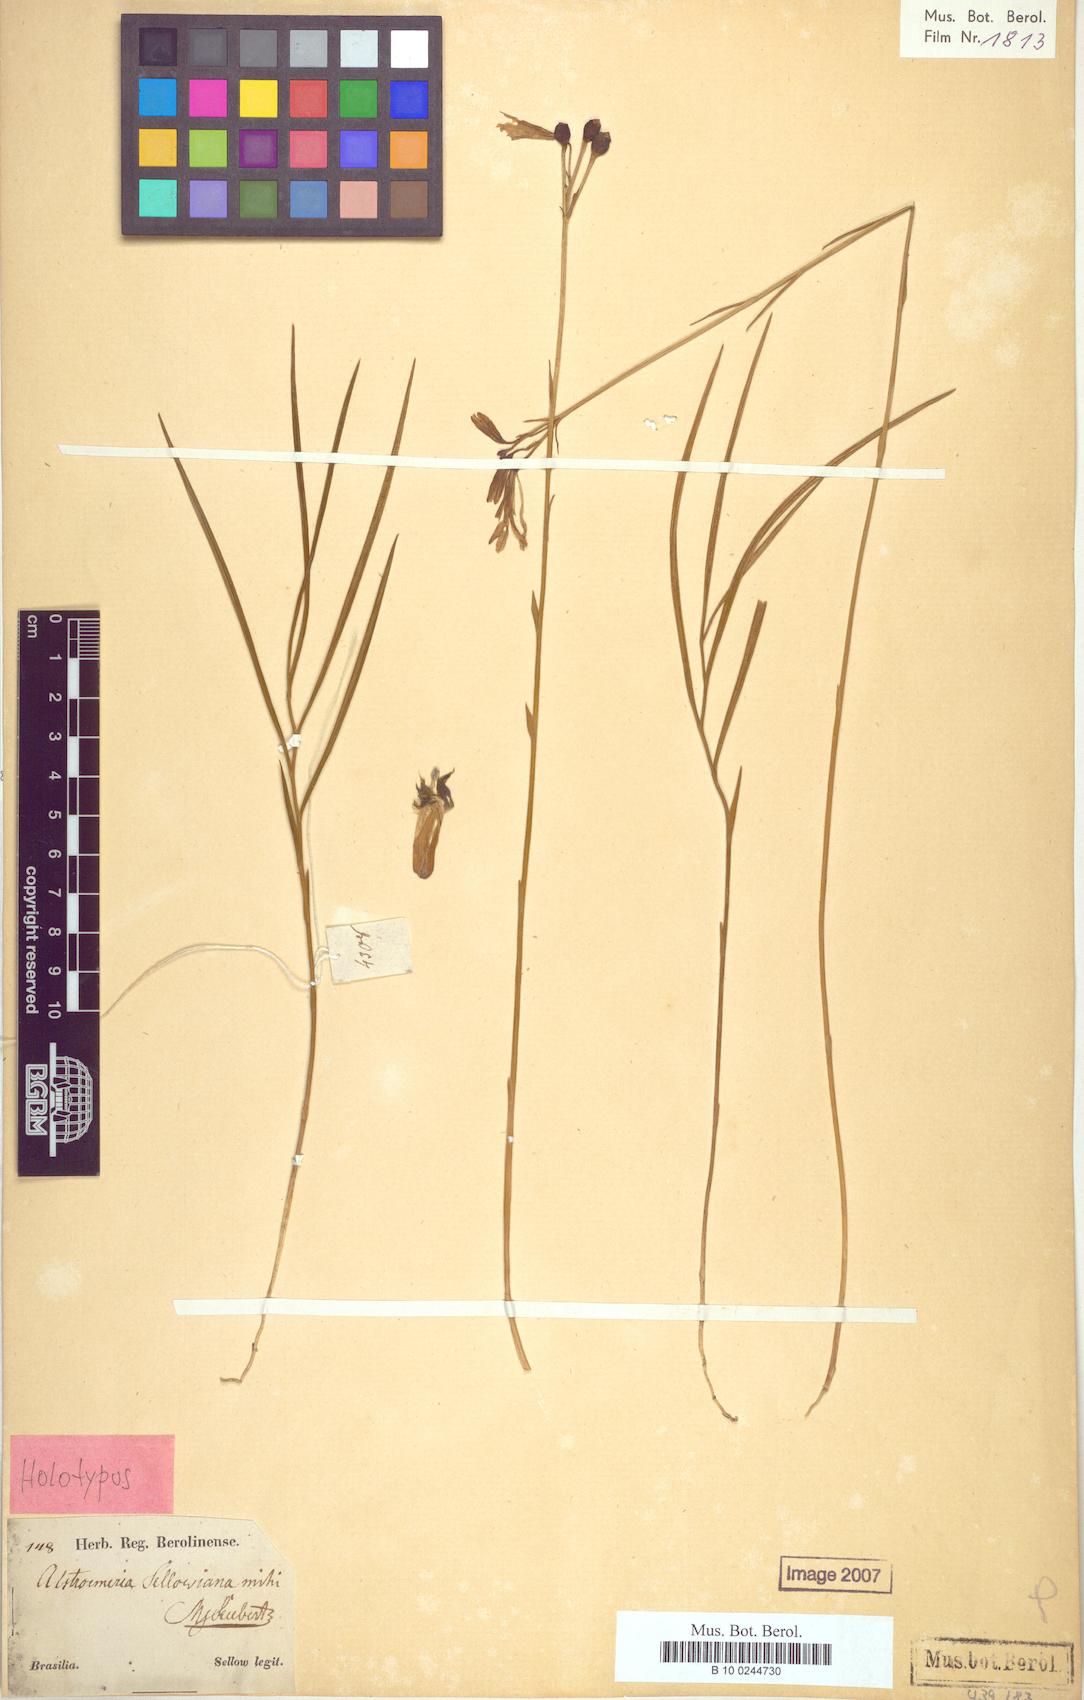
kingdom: Plantae
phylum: Tracheophyta
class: Liliopsida
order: Liliales
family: Alstroemeriaceae
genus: Alstroemeria
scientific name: Alstroemeria sellowiana
